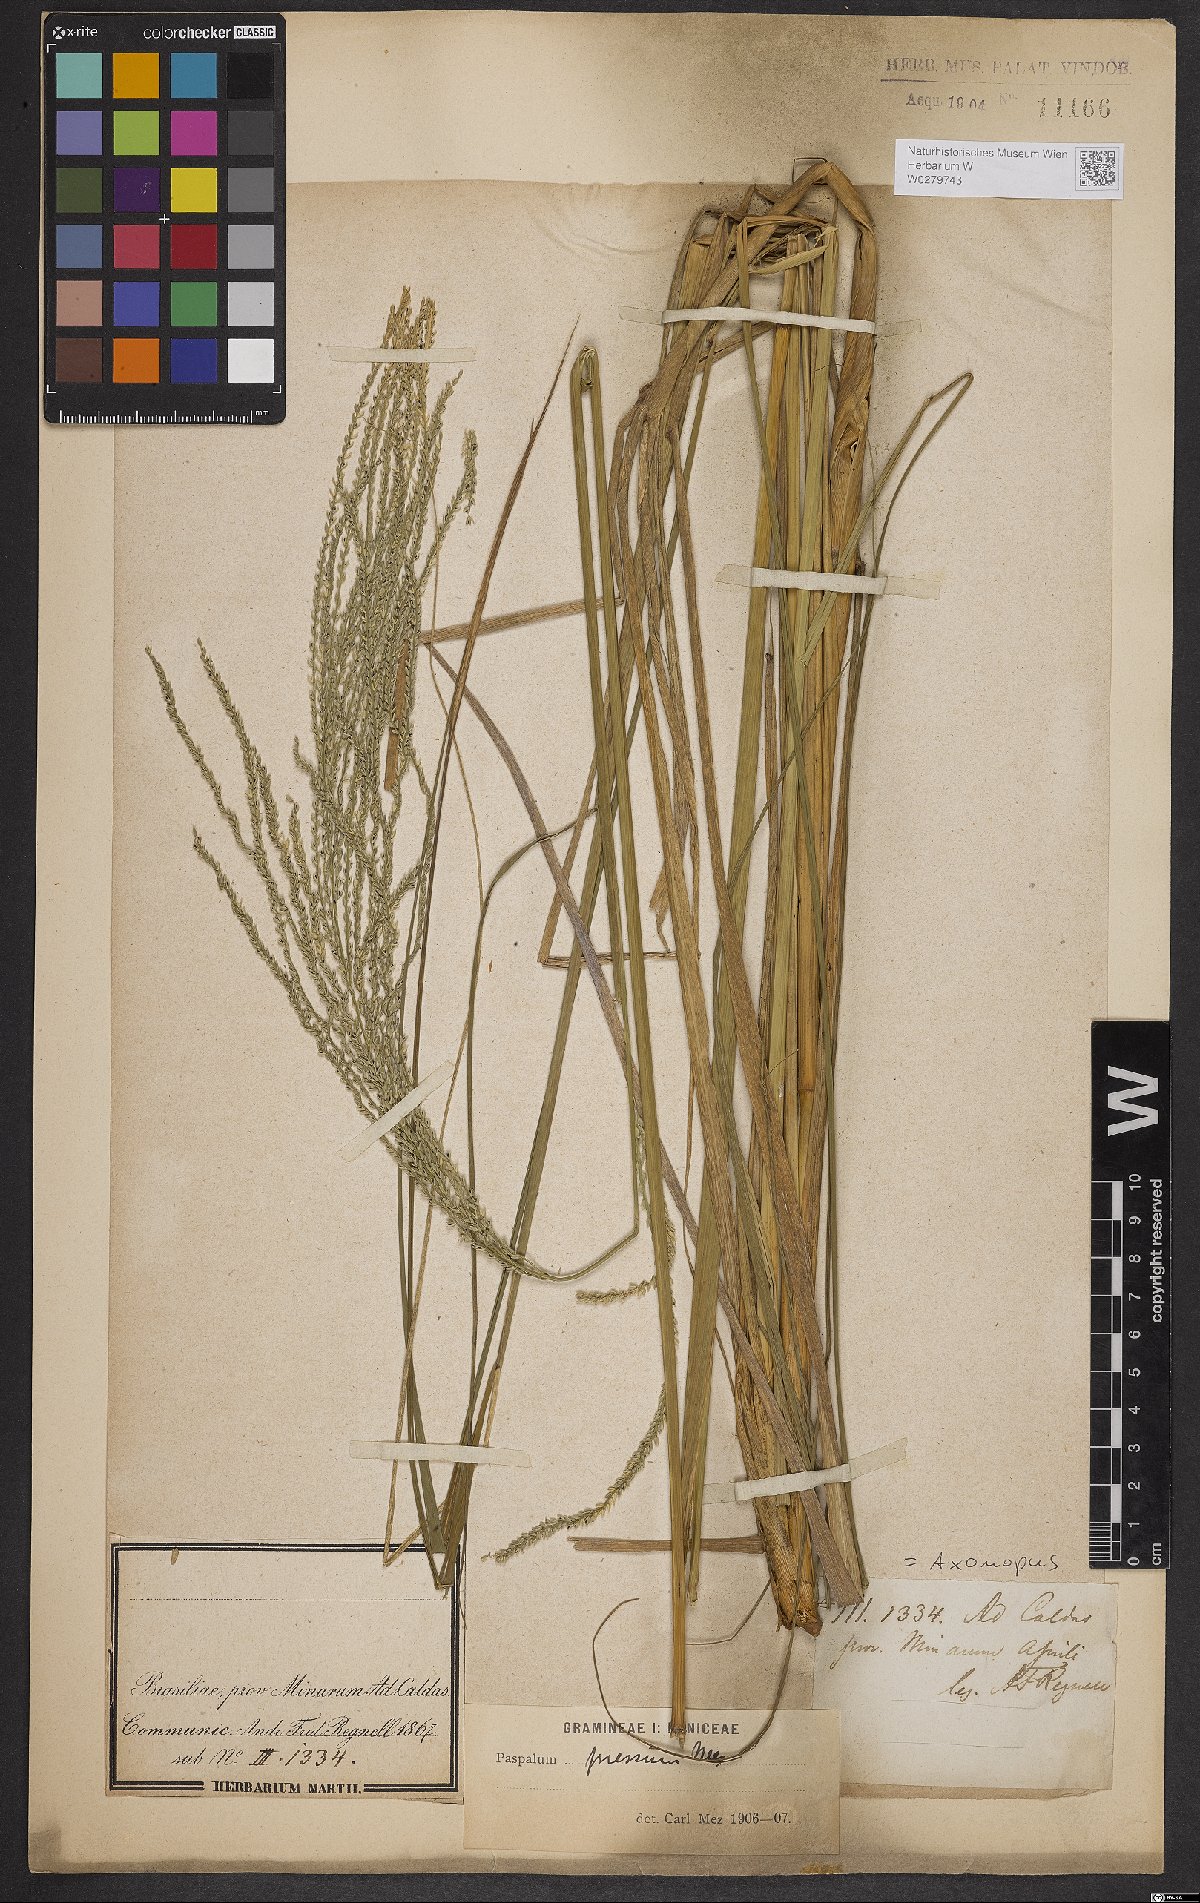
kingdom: Plantae
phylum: Tracheophyta
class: Liliopsida
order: Poales
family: Poaceae
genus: Axonopus
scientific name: Axonopus pressus
